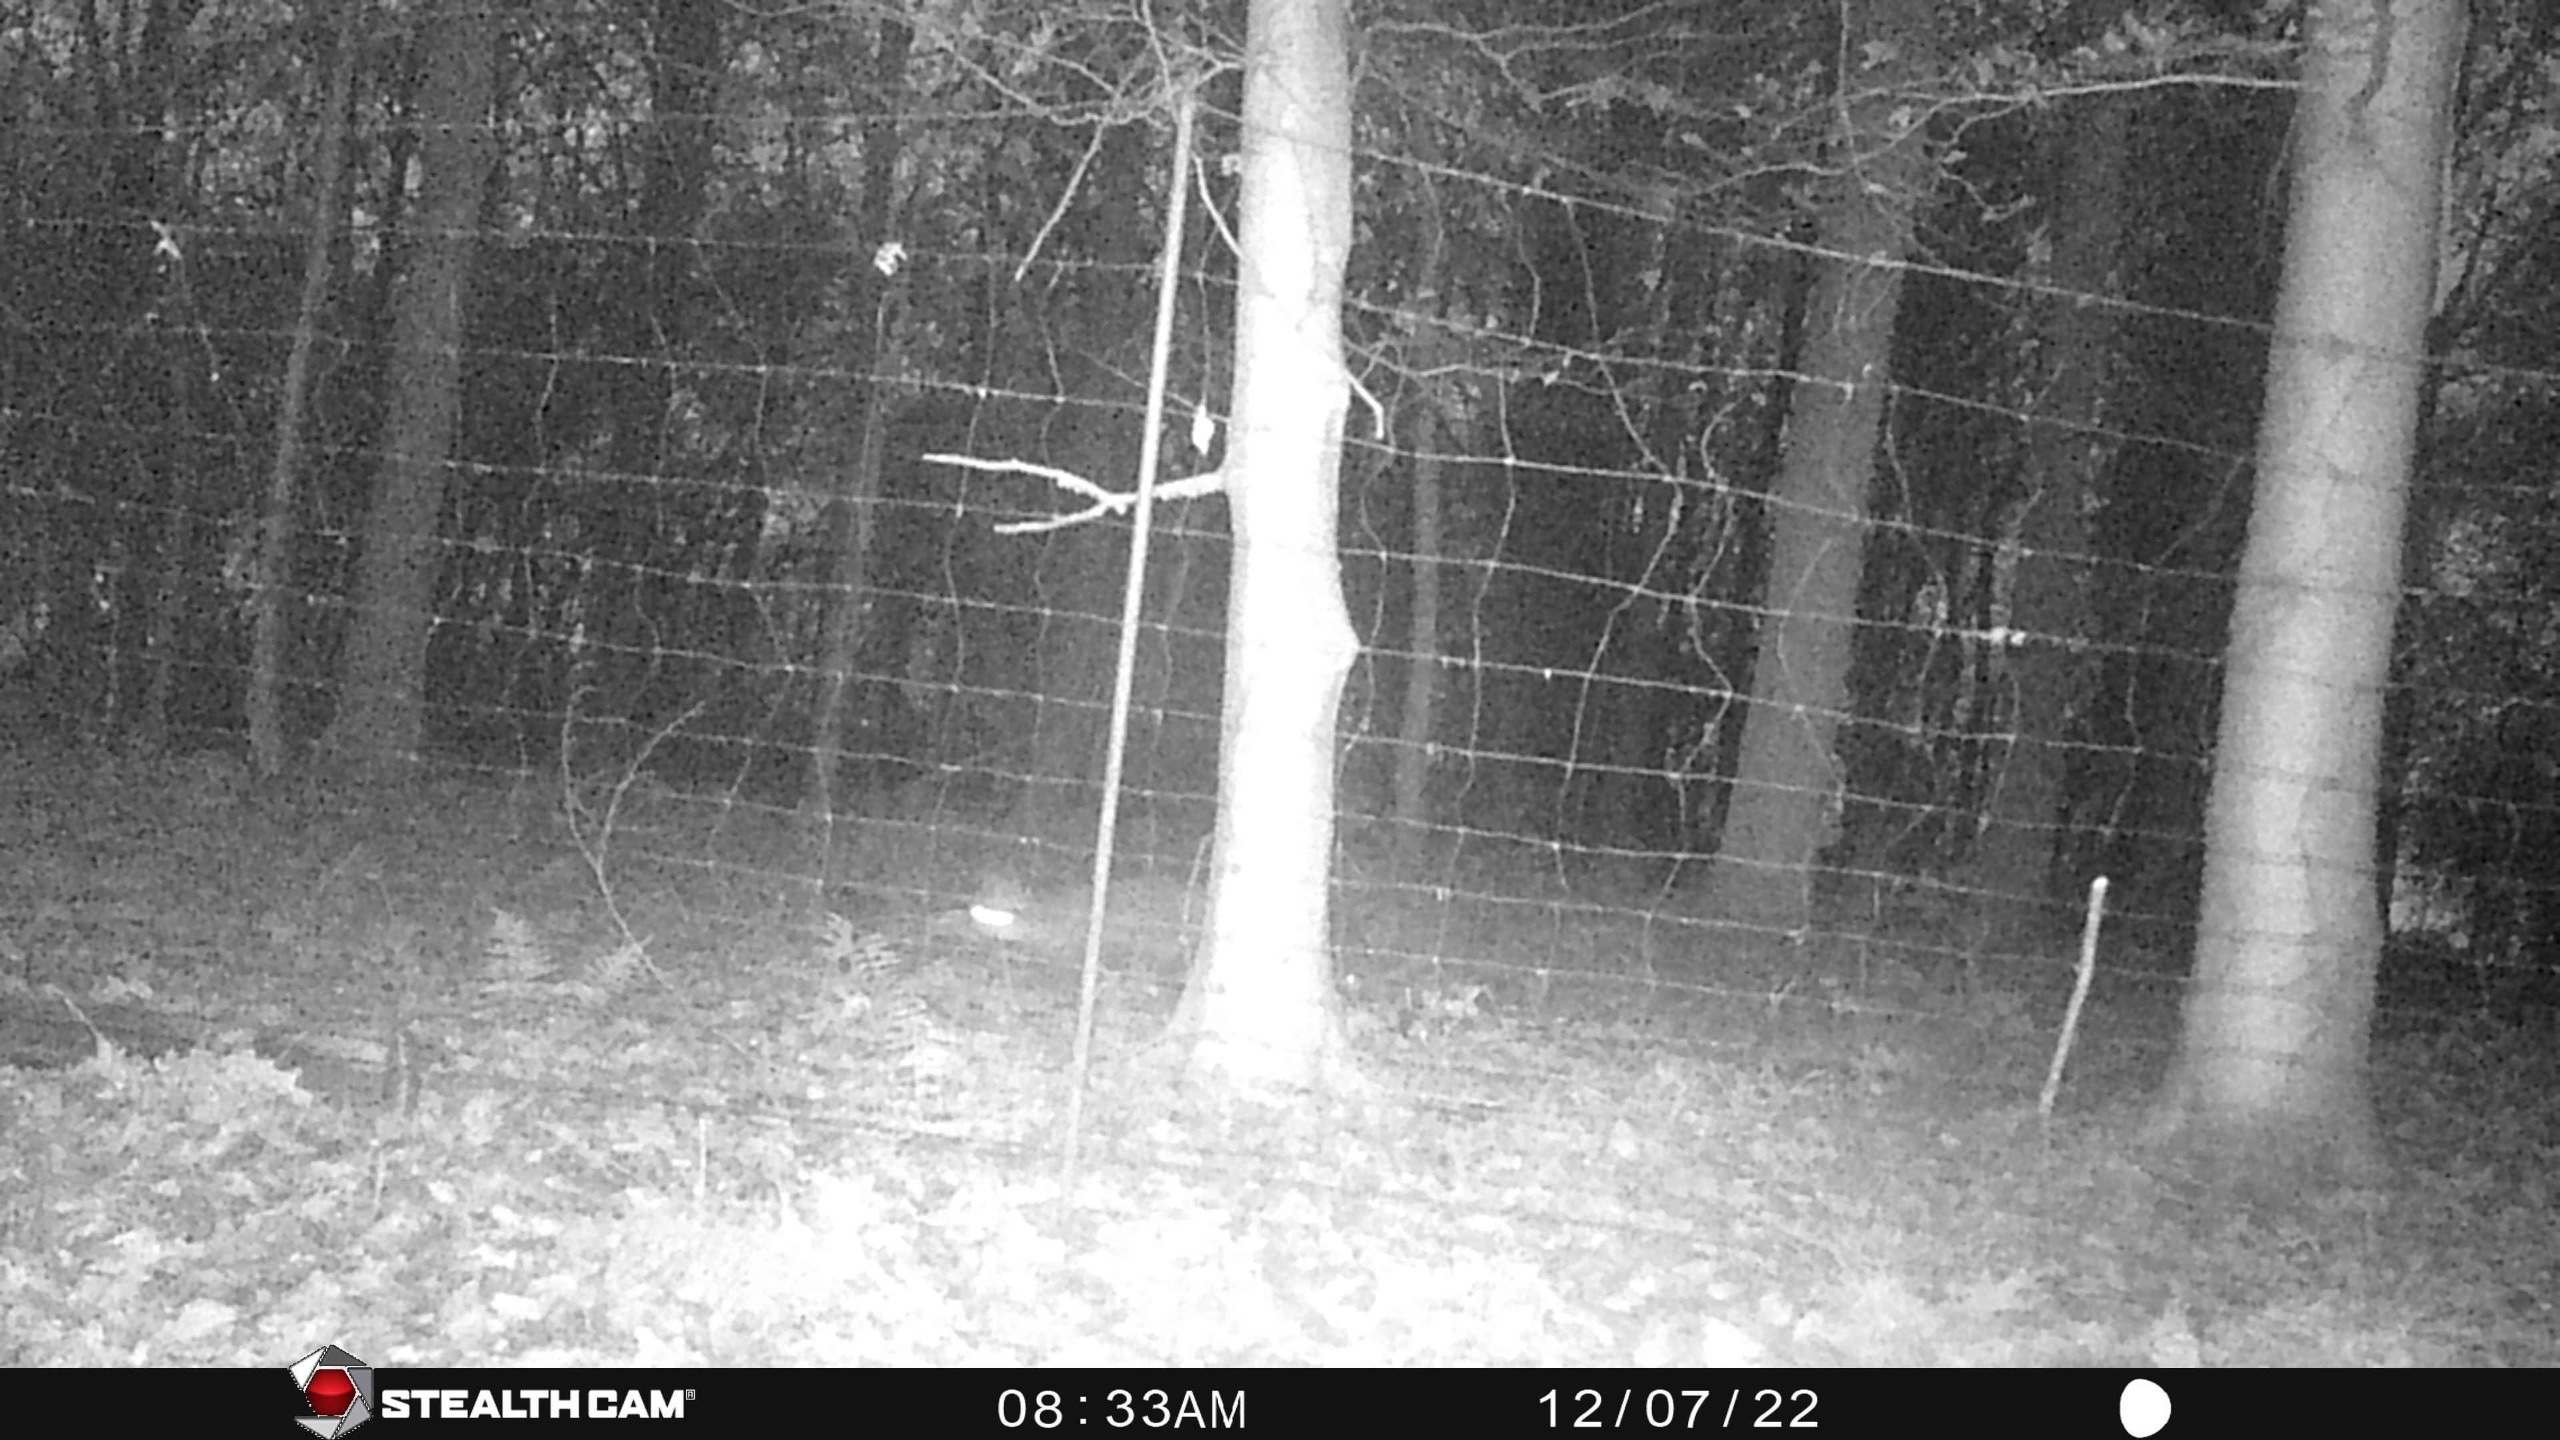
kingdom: Animalia
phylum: Chordata
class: Mammalia
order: Carnivora
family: Canidae
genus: Vulpes
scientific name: Vulpes vulpes
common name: Ræv
